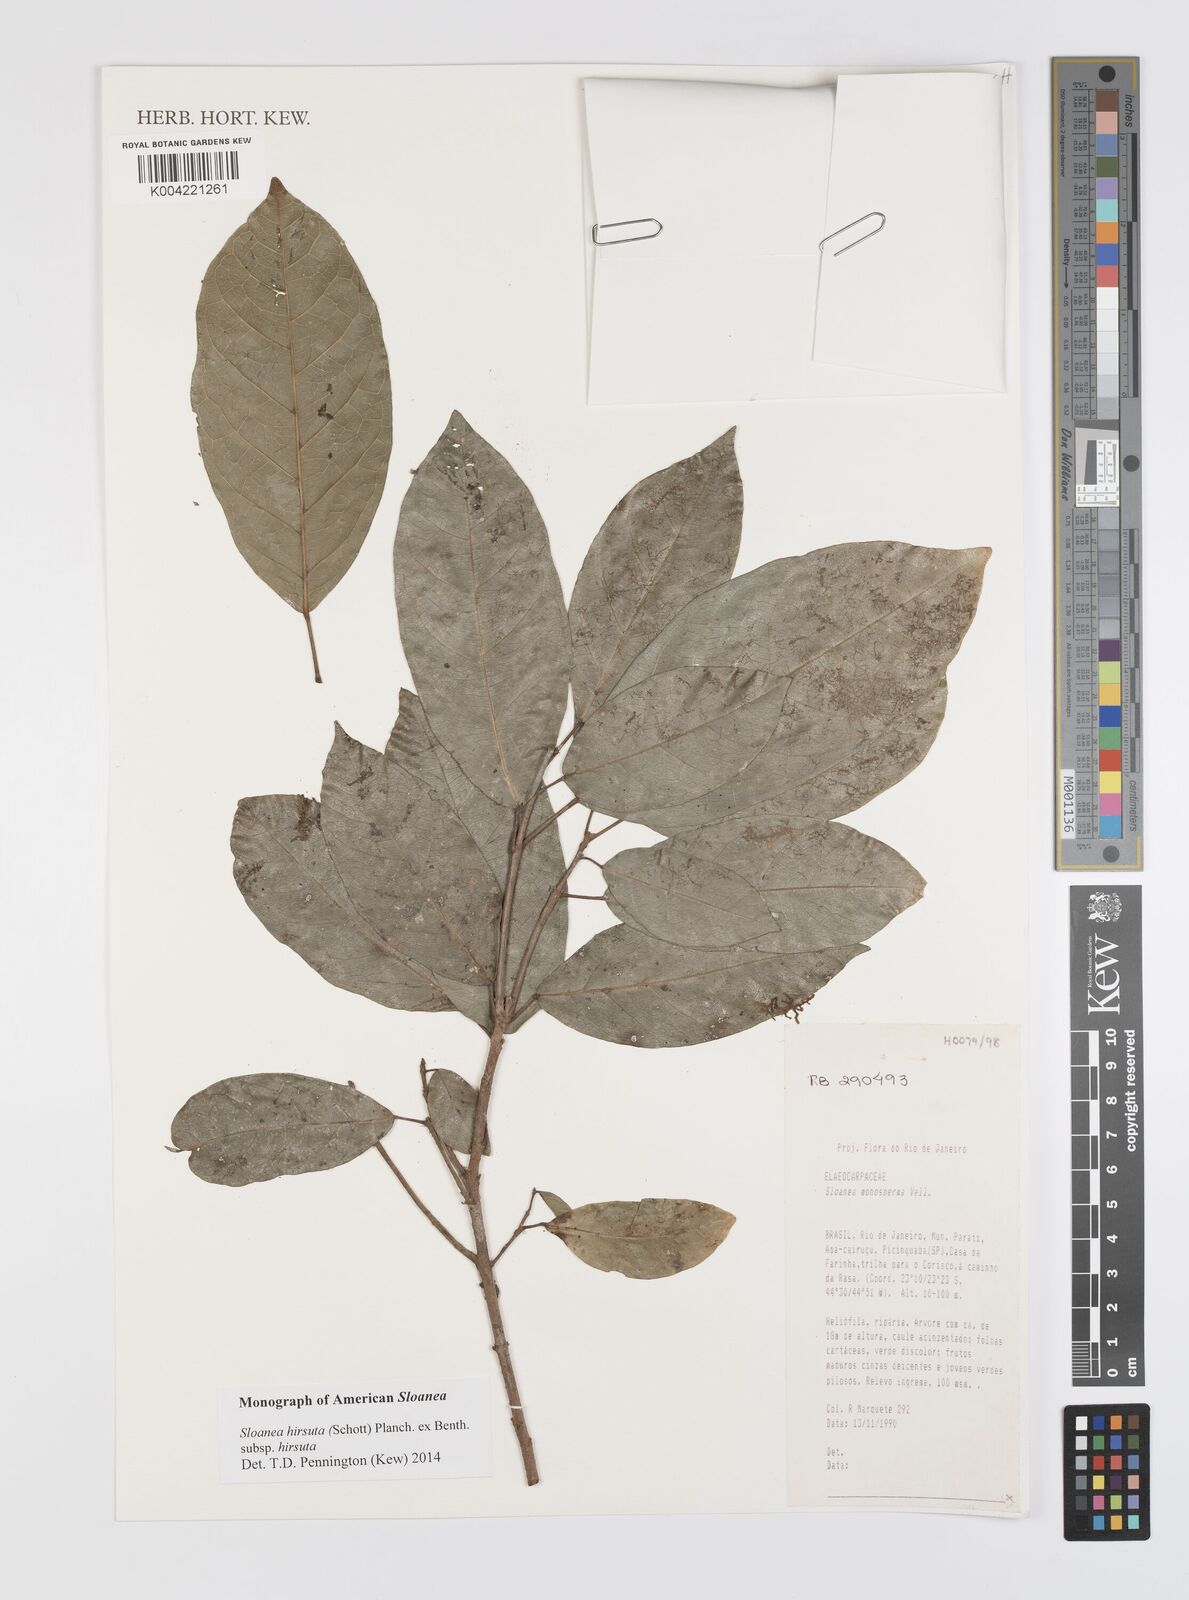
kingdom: Plantae
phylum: Tracheophyta
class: Magnoliopsida
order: Oxalidales
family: Elaeocarpaceae
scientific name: Elaeocarpaceae
